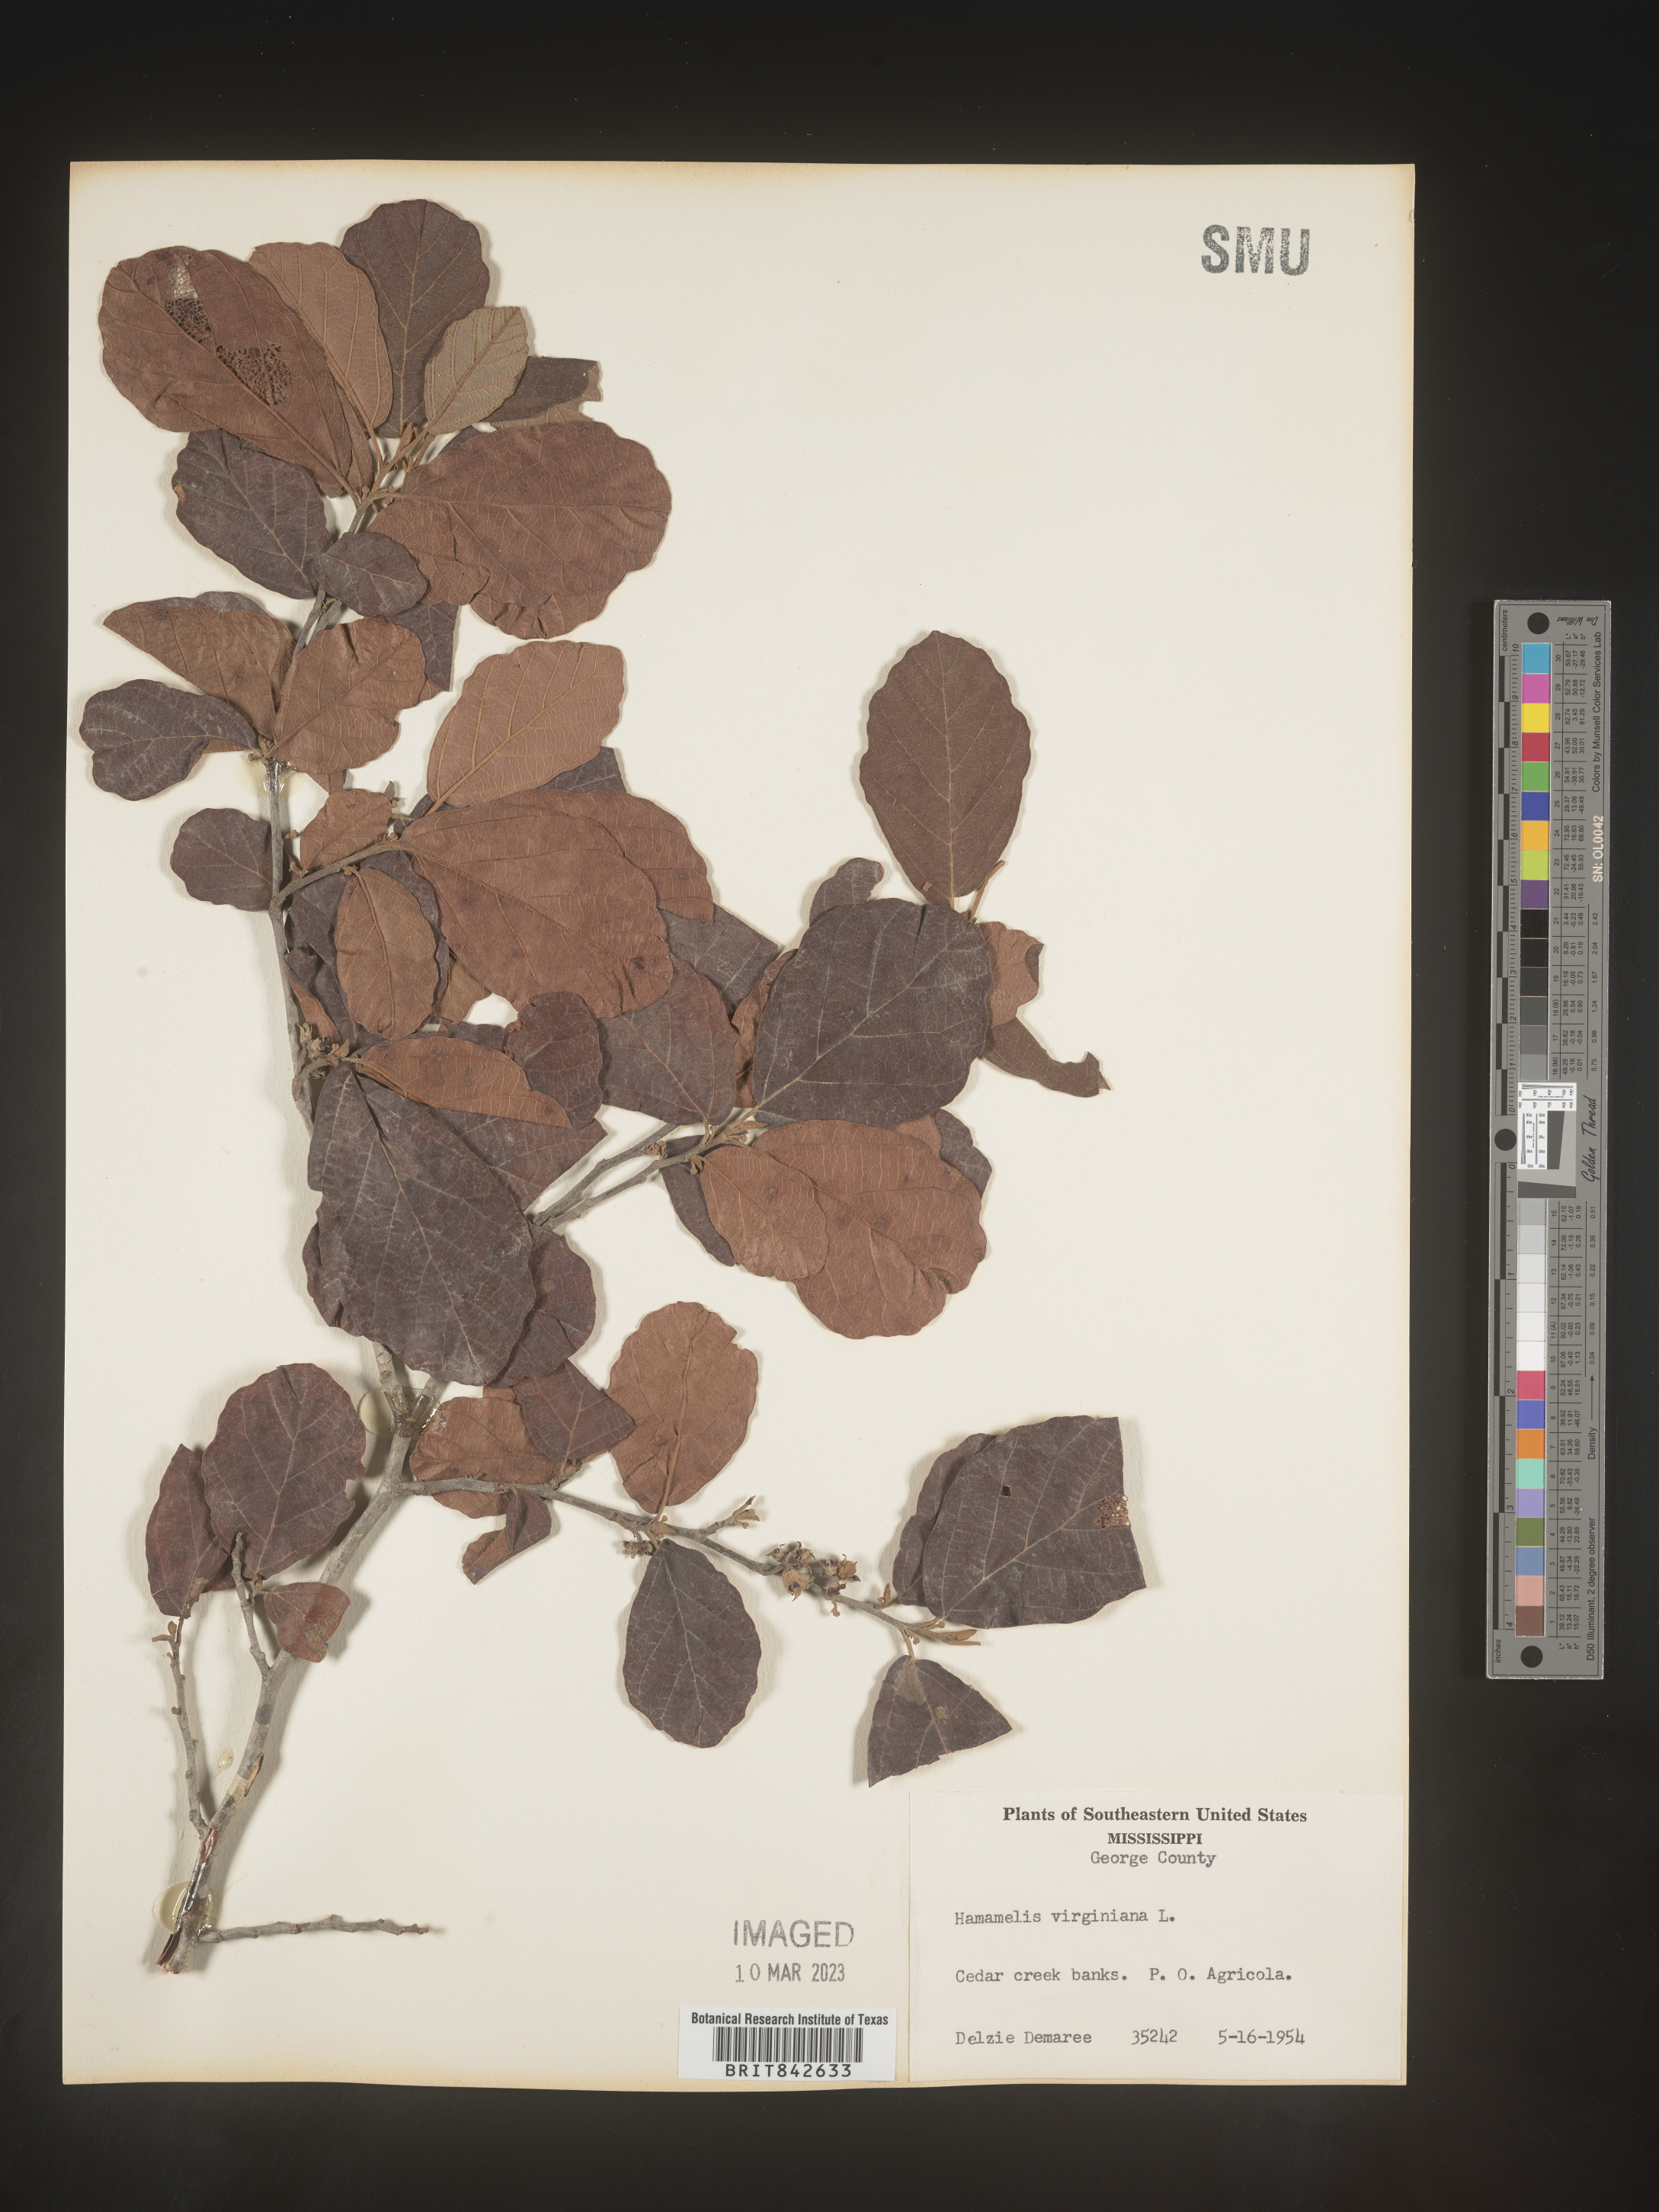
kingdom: Plantae
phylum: Tracheophyta
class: Magnoliopsida
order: Saxifragales
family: Hamamelidaceae
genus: Hamamelis
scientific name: Hamamelis
